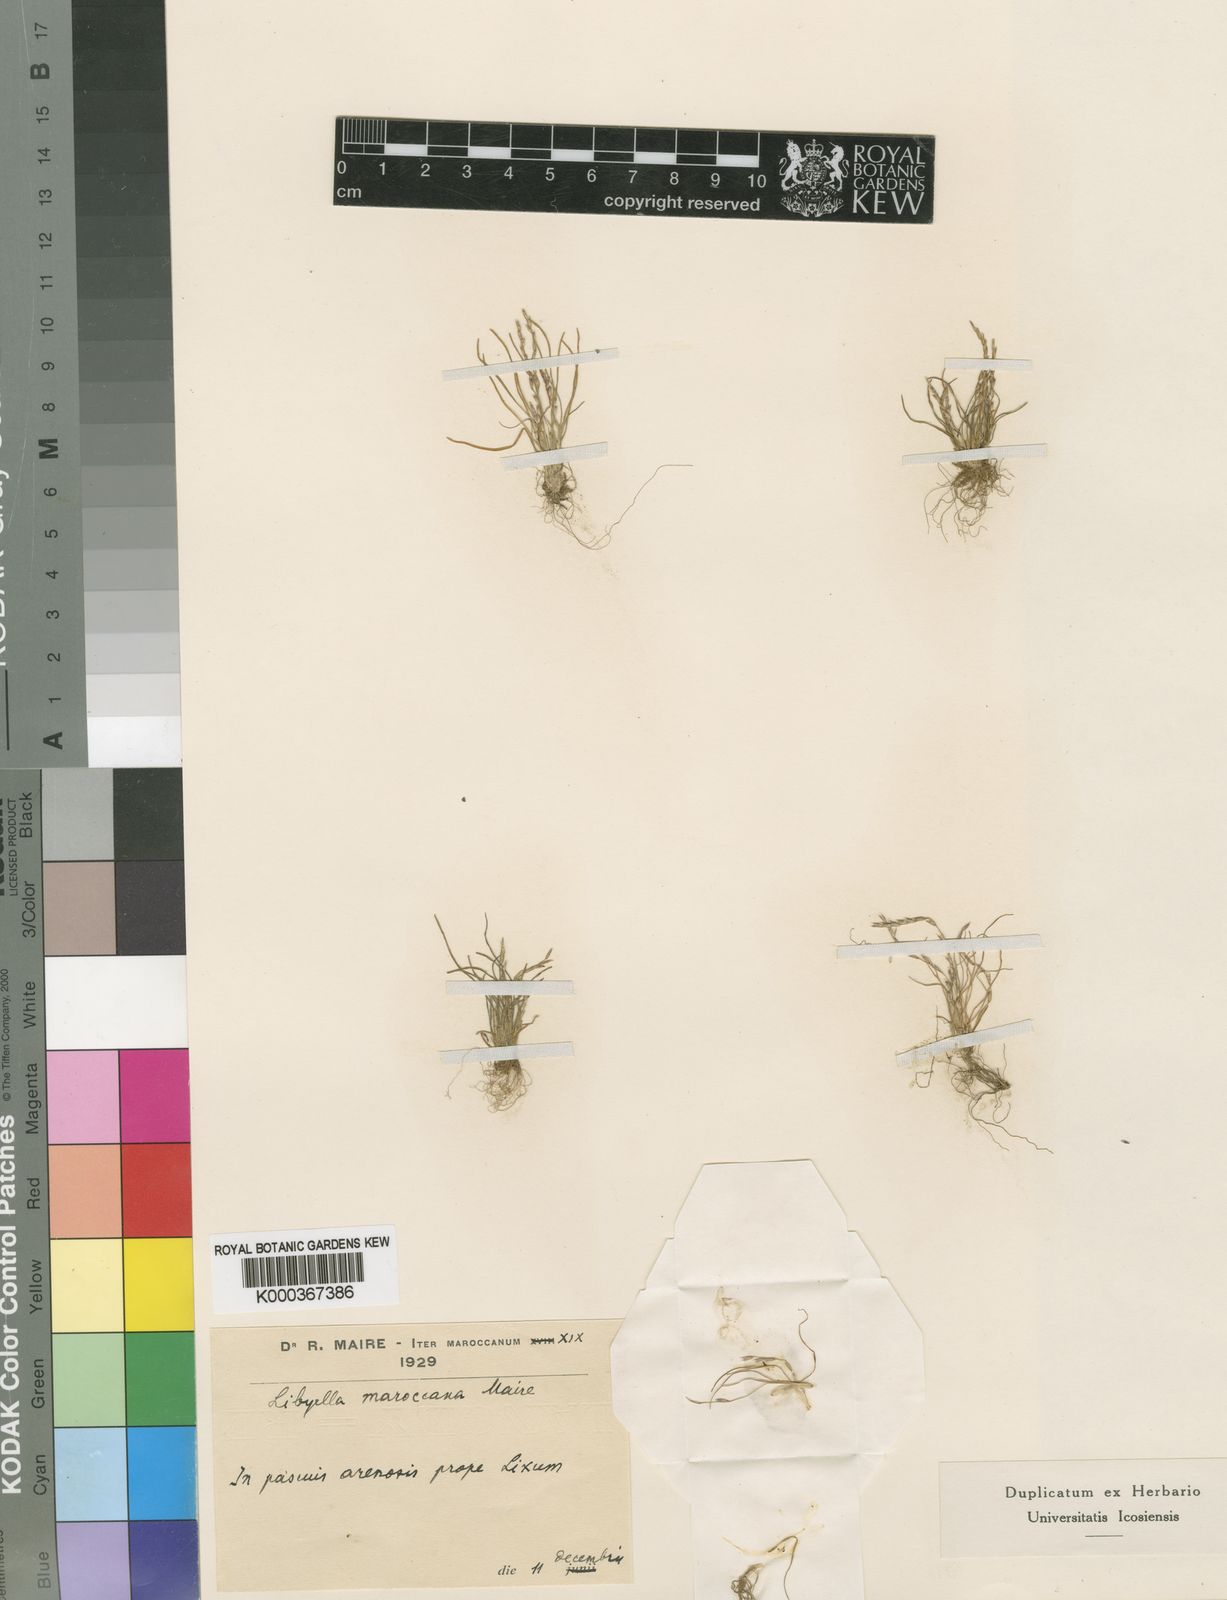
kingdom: Plantae
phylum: Tracheophyta
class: Liliopsida
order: Poales
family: Poaceae
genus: Mibora
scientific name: Mibora maroccana
